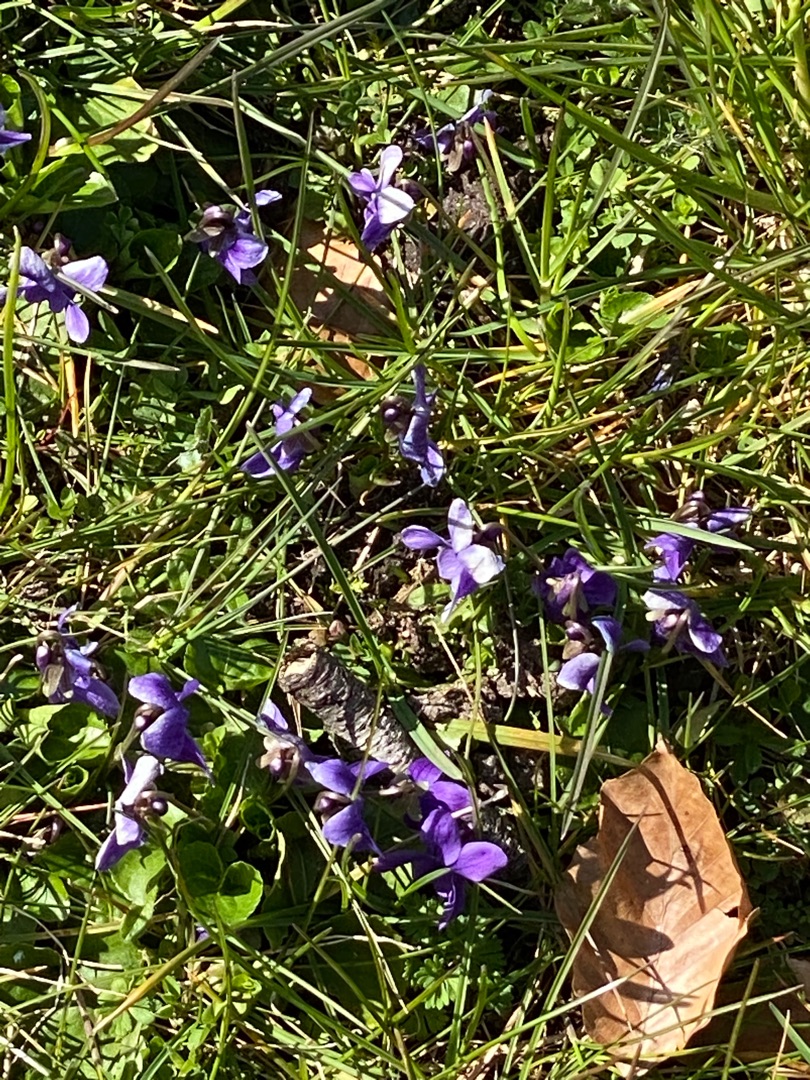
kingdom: Plantae
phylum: Tracheophyta
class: Magnoliopsida
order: Malpighiales
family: Violaceae
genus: Viola
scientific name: Viola odorata
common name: Marts-viol
